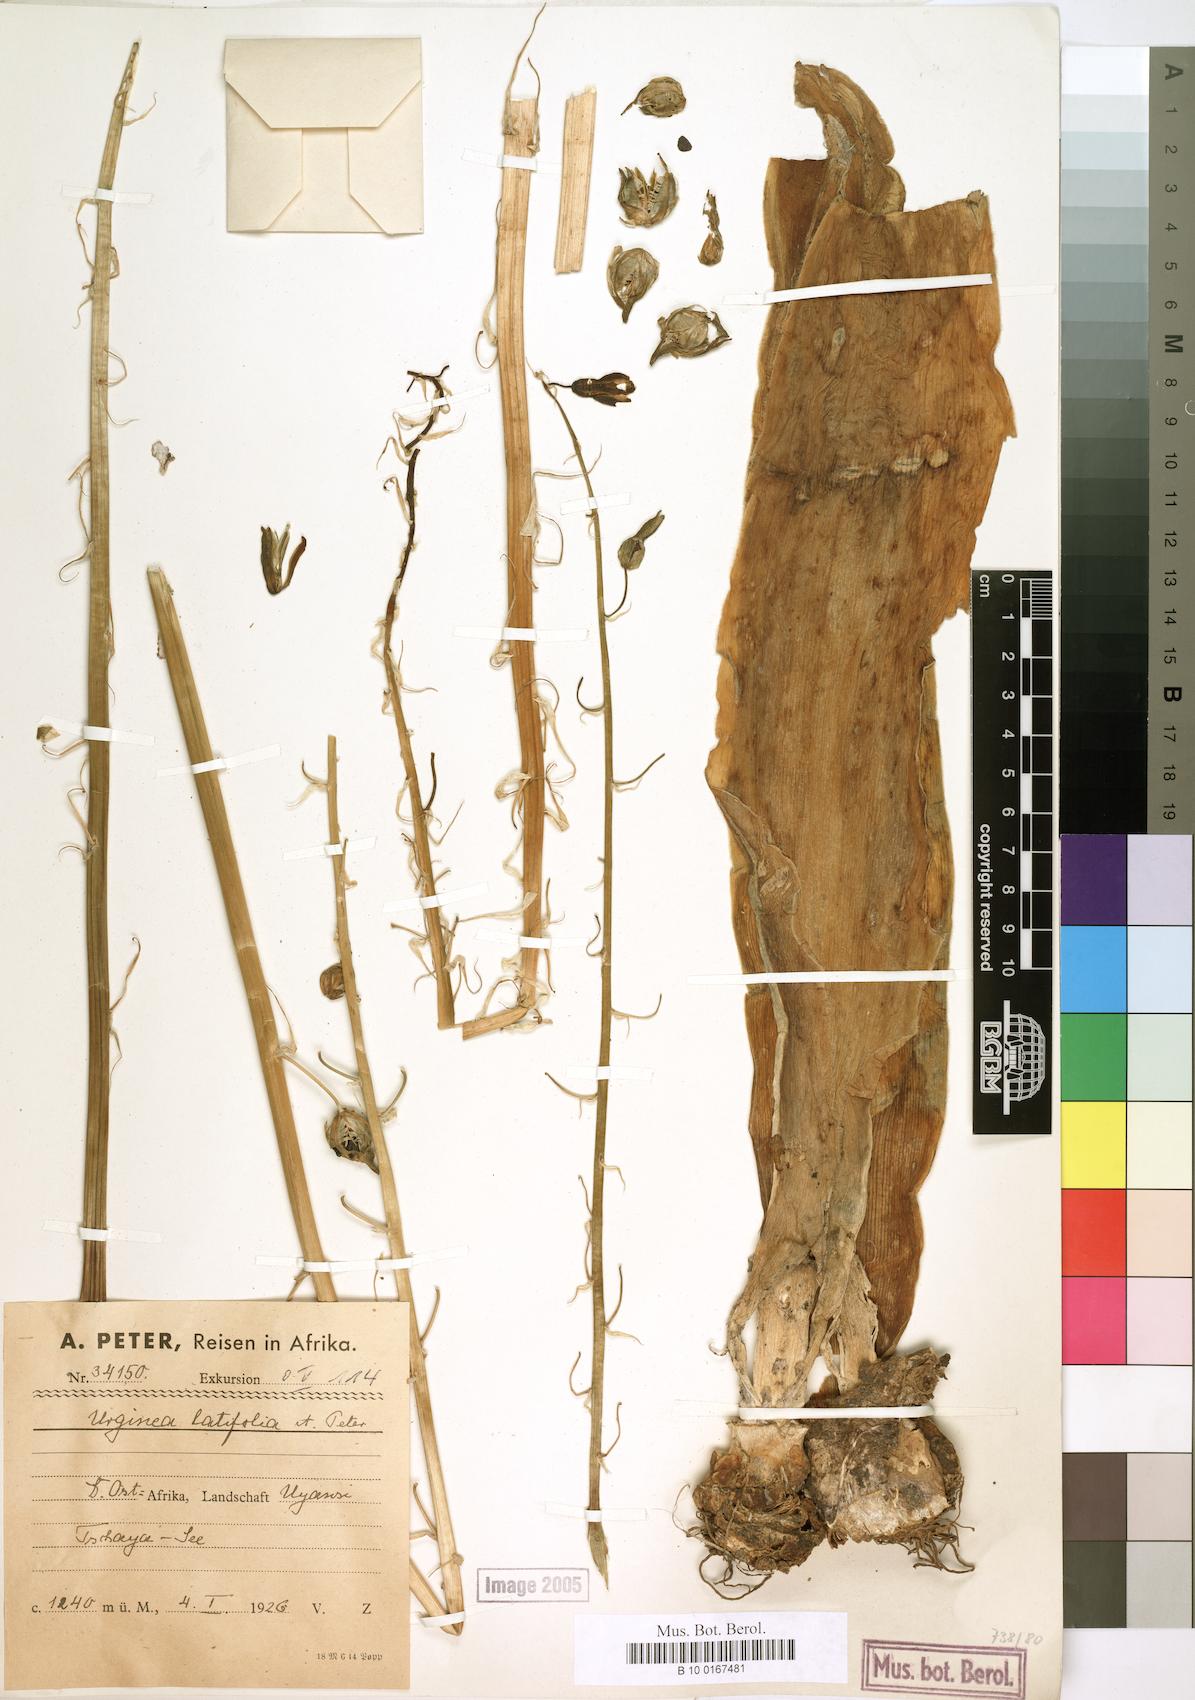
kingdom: Plantae
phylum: Tracheophyta
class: Liliopsida
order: Asparagales
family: Asparagaceae
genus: Drimia
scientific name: Drimia
